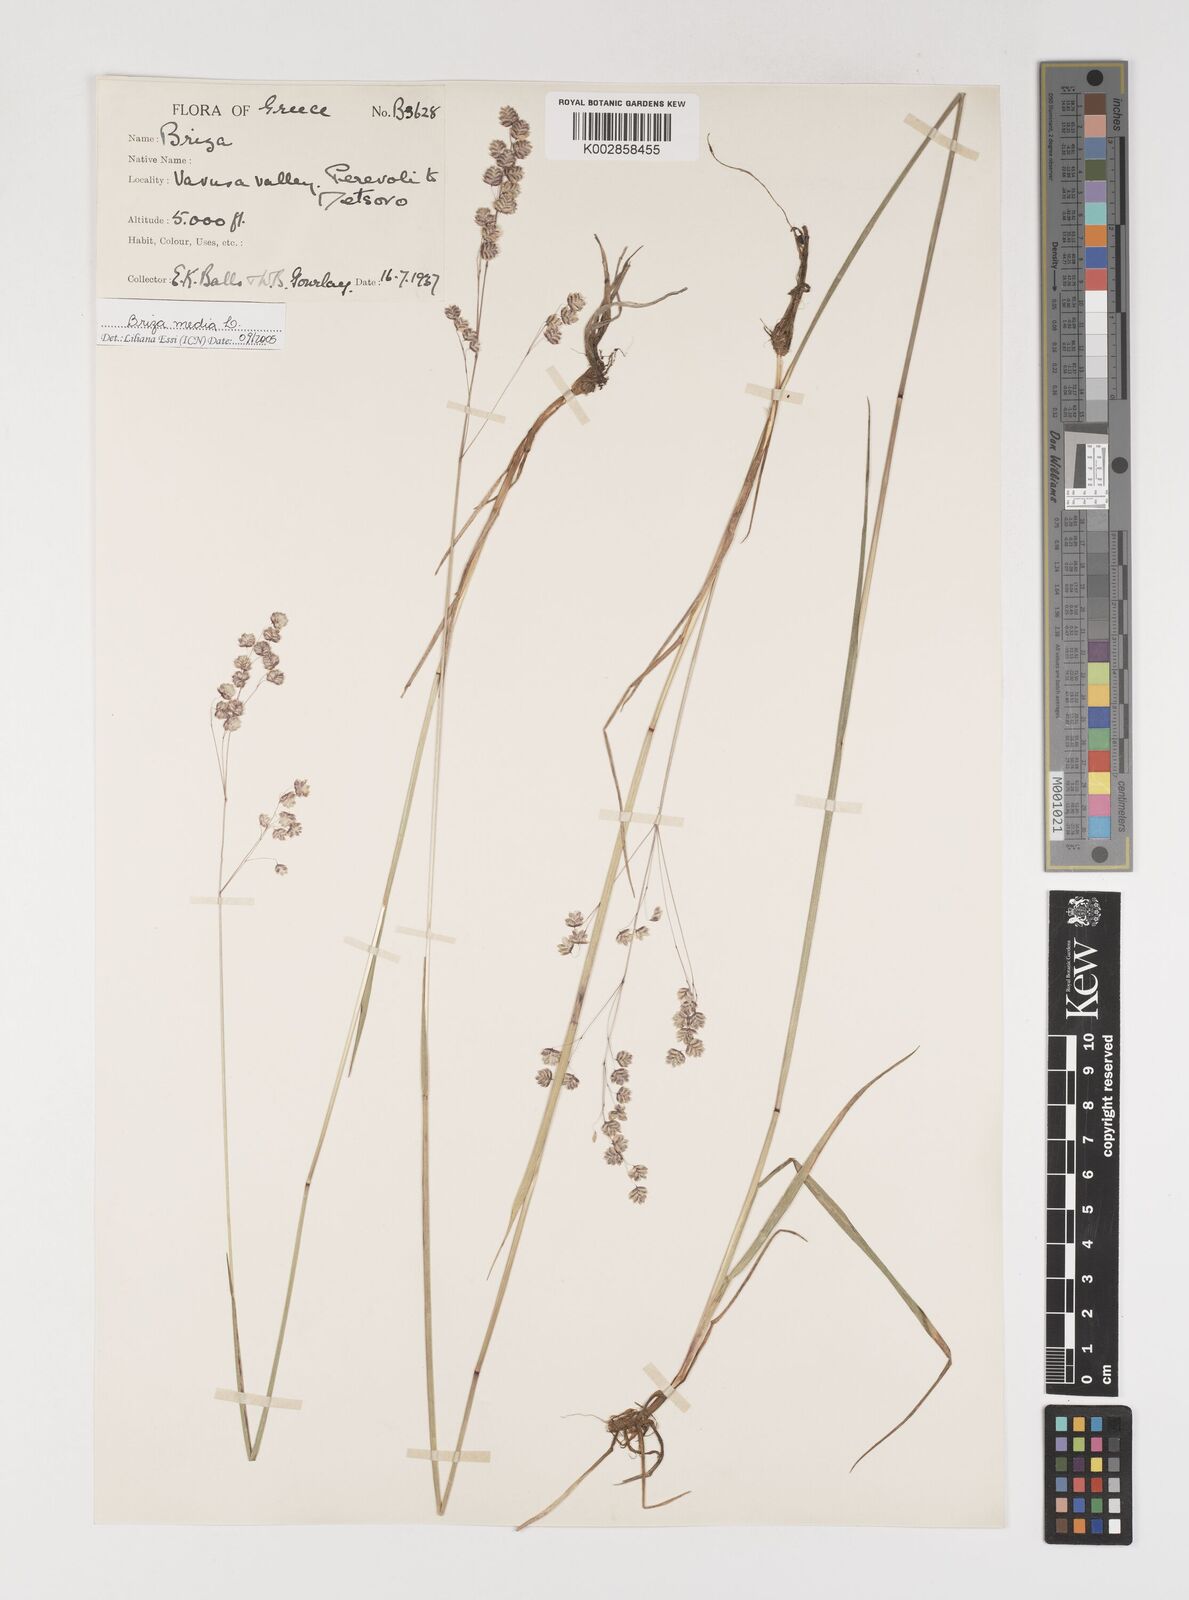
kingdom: Plantae
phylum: Tracheophyta
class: Liliopsida
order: Poales
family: Poaceae
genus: Briza
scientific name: Briza media
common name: Quaking grass
